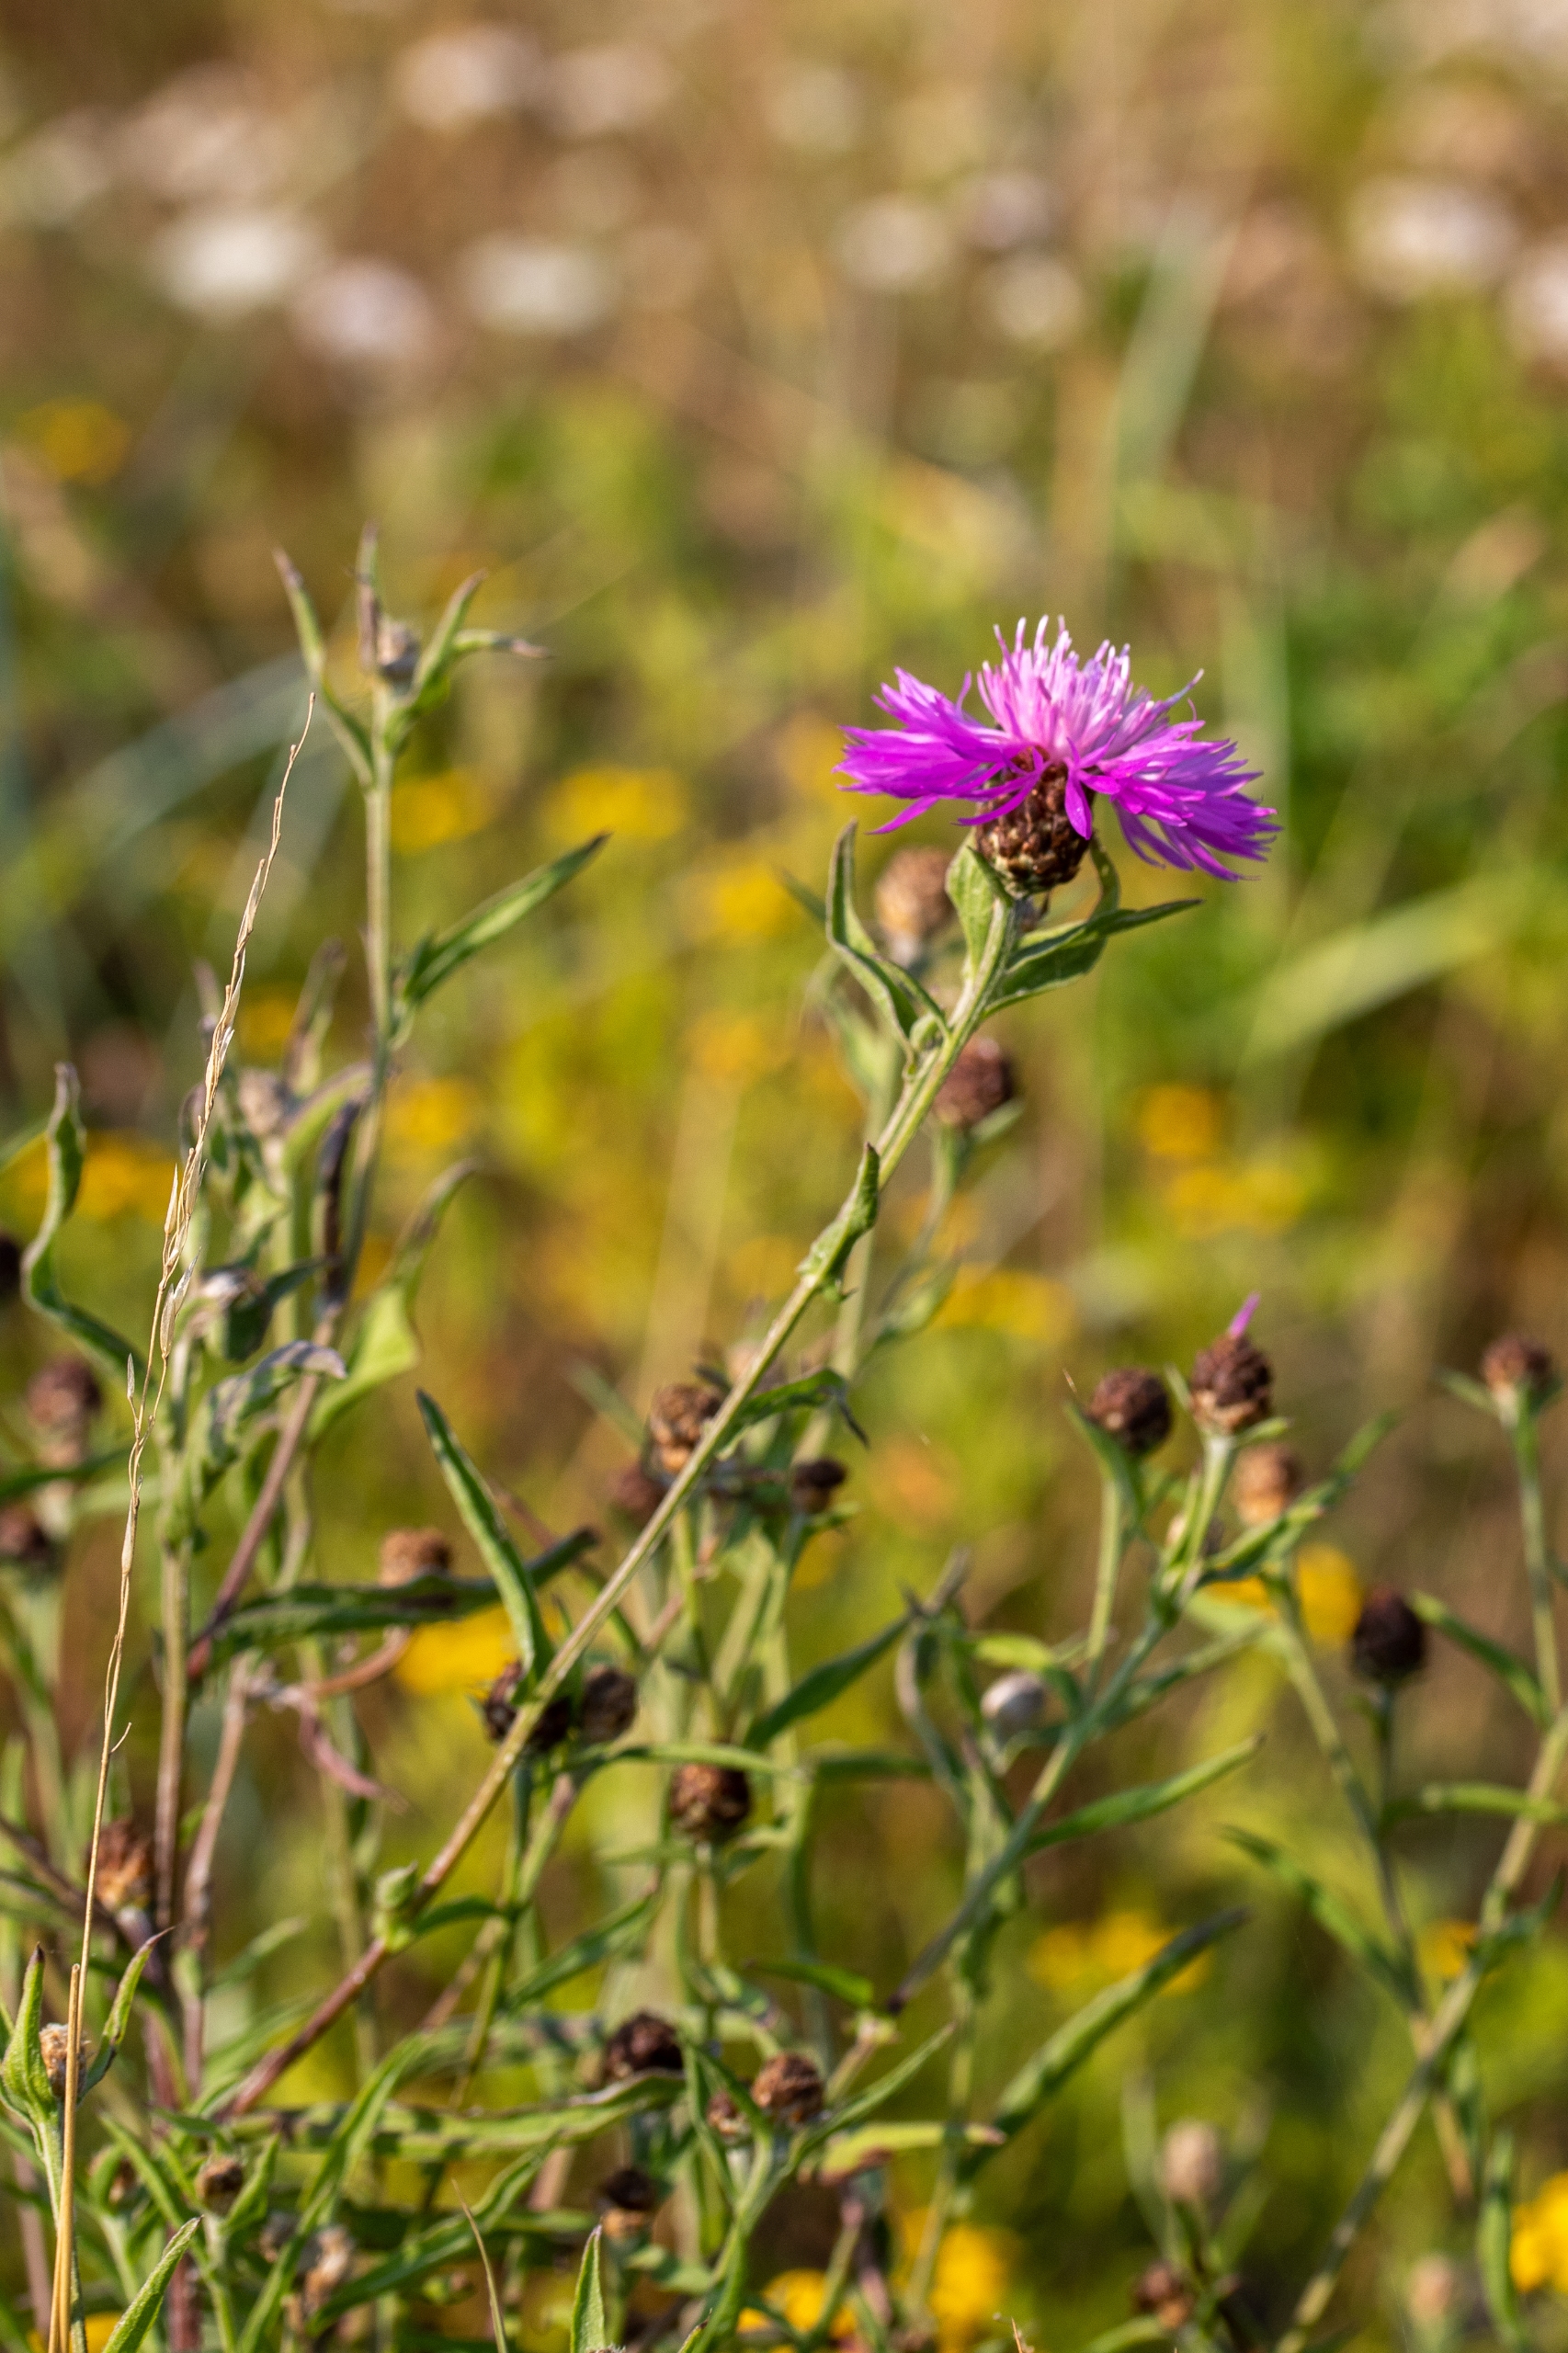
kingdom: Plantae
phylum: Tracheophyta
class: Magnoliopsida
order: Asterales
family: Asteraceae
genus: Centaurea
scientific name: Centaurea jacea
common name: Almindelig knopurt
